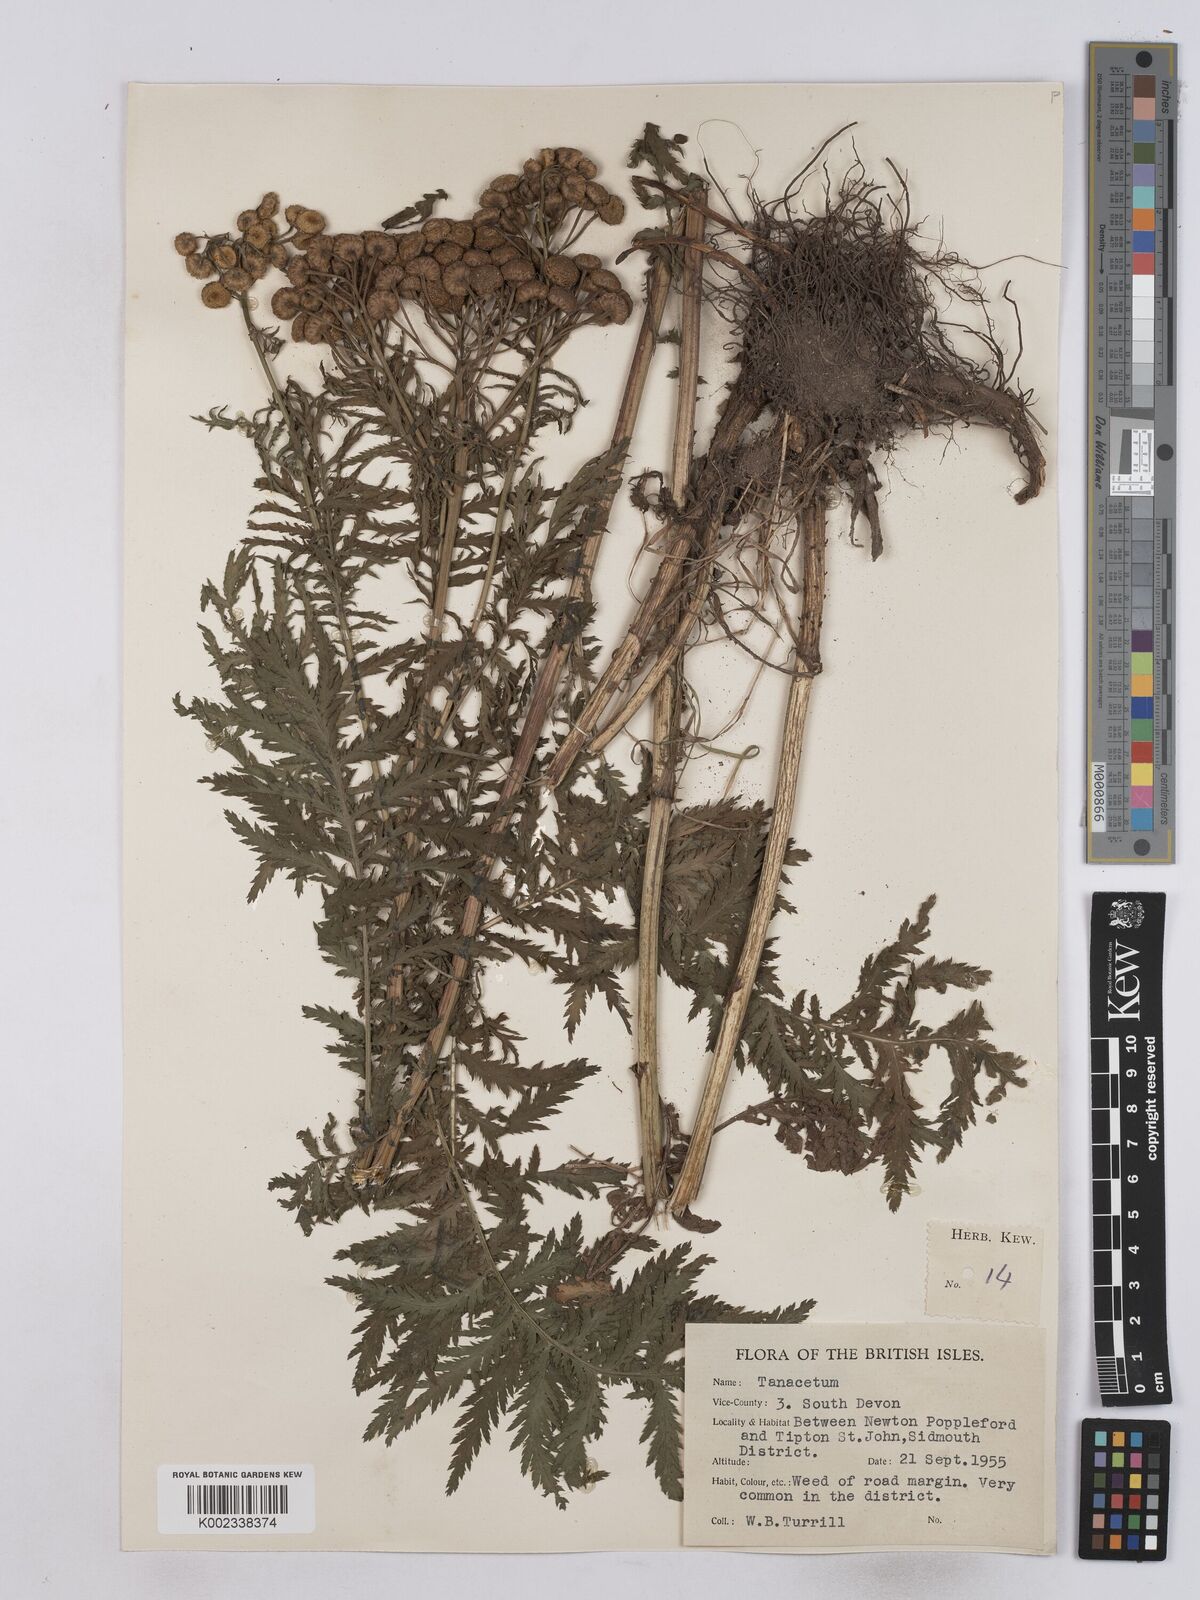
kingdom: Plantae
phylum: Tracheophyta
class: Magnoliopsida
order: Asterales
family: Asteraceae
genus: Tanacetum
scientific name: Tanacetum
